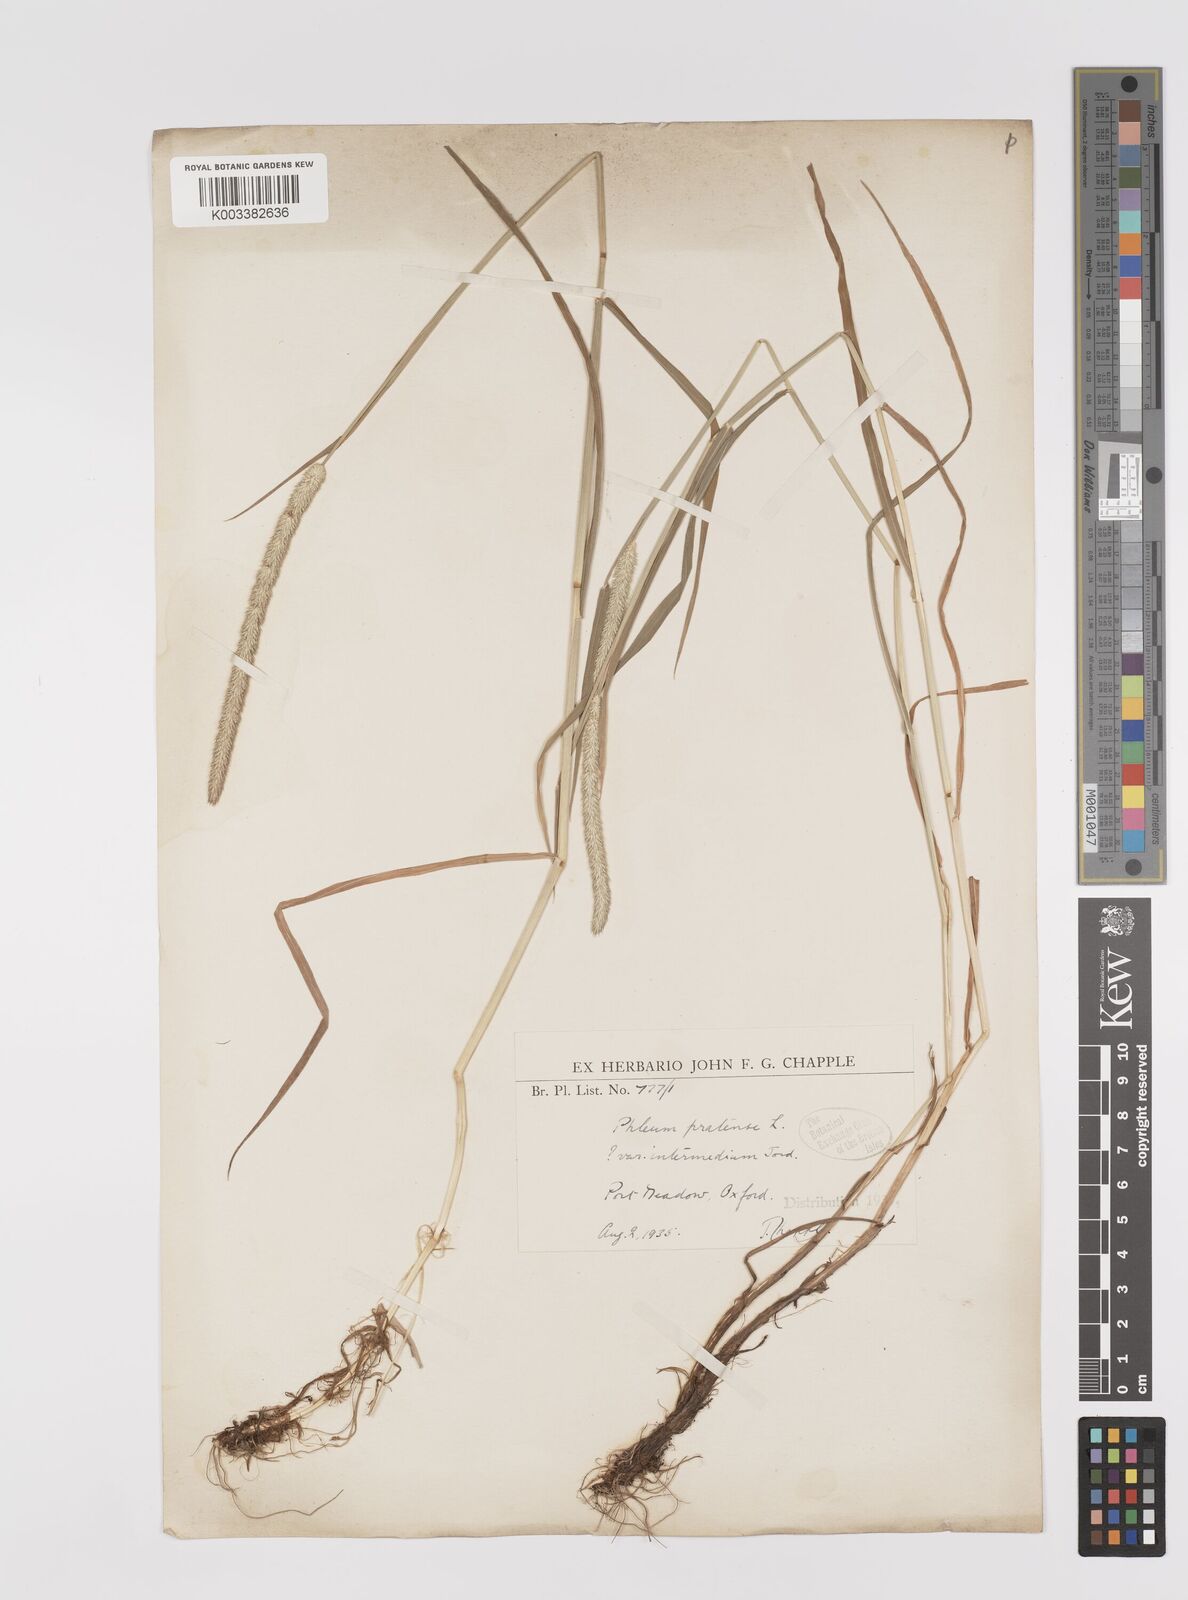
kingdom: Plantae
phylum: Tracheophyta
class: Liliopsida
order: Poales
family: Poaceae
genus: Phleum
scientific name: Phleum pratense
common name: Timothy grass
